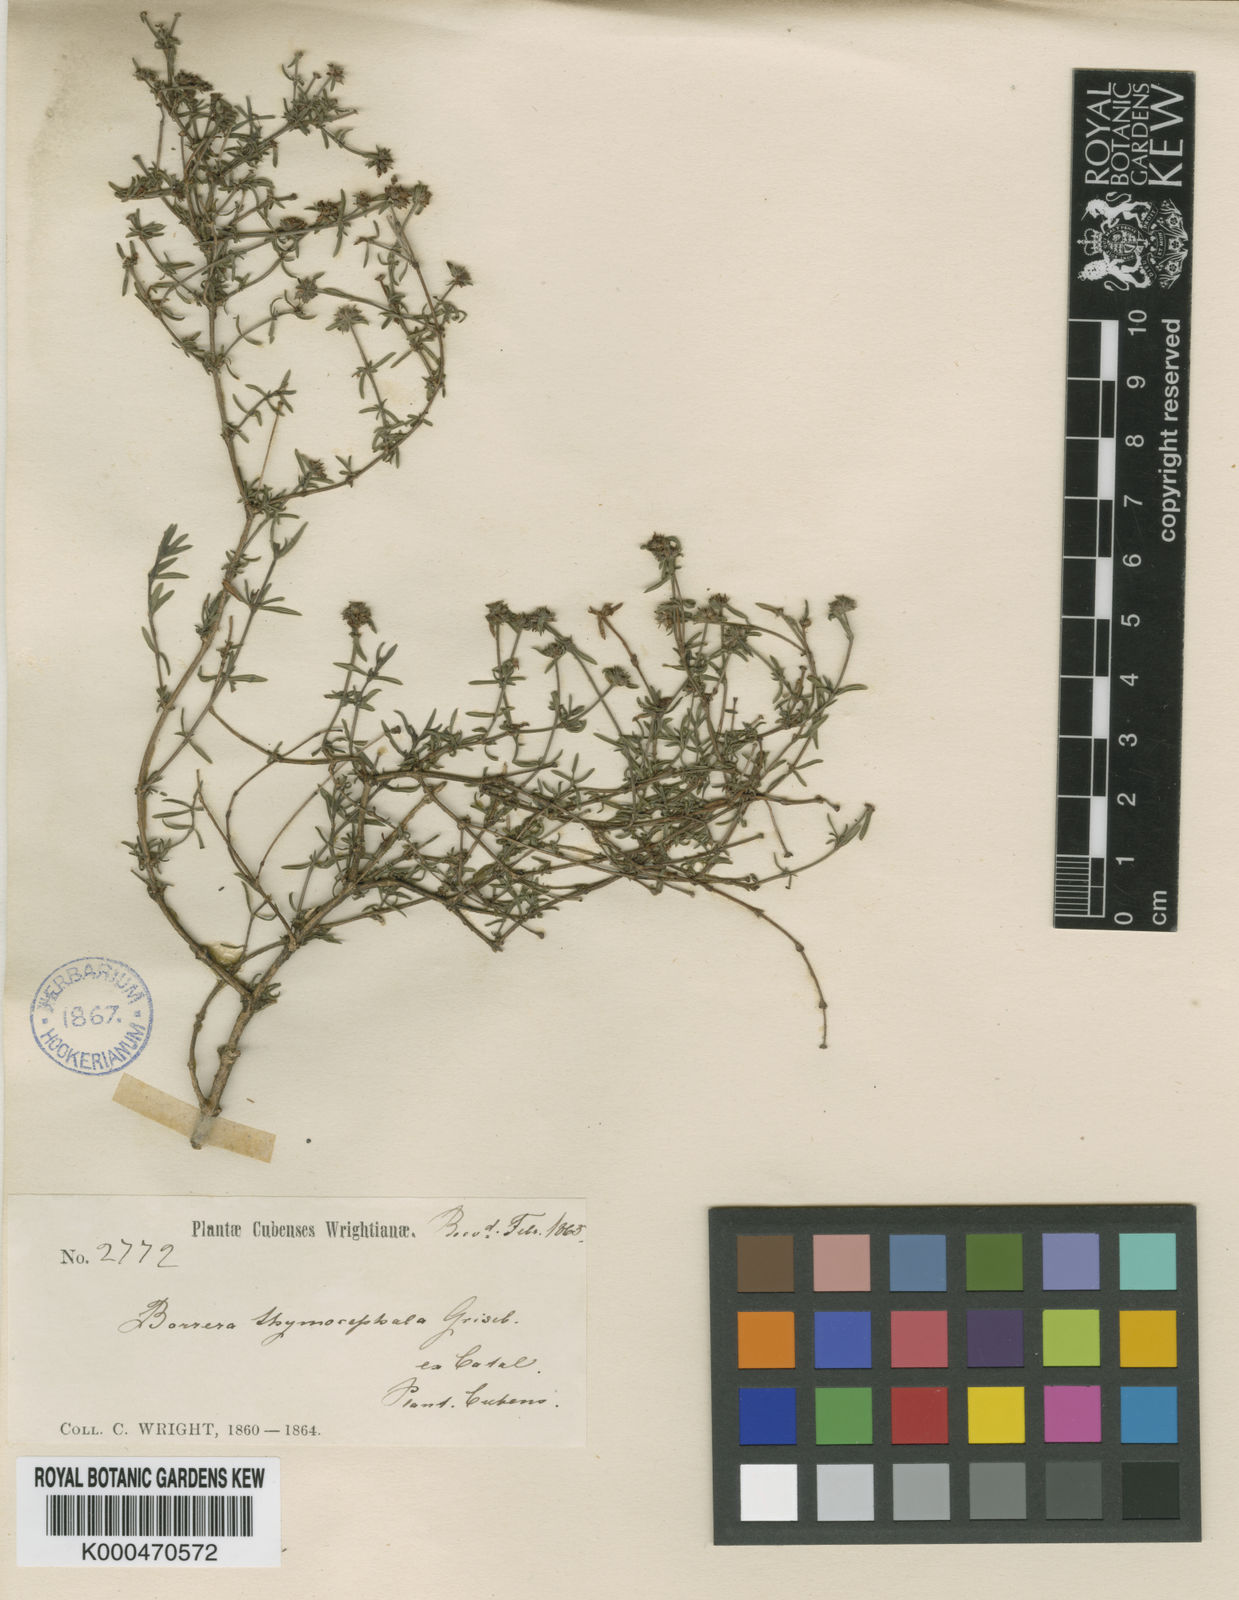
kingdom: Plantae
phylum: Tracheophyta
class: Magnoliopsida
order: Gentianales
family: Rubiaceae
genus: Spermacoce
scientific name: Spermacoce verticillata
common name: Shrubby false buttonweed
